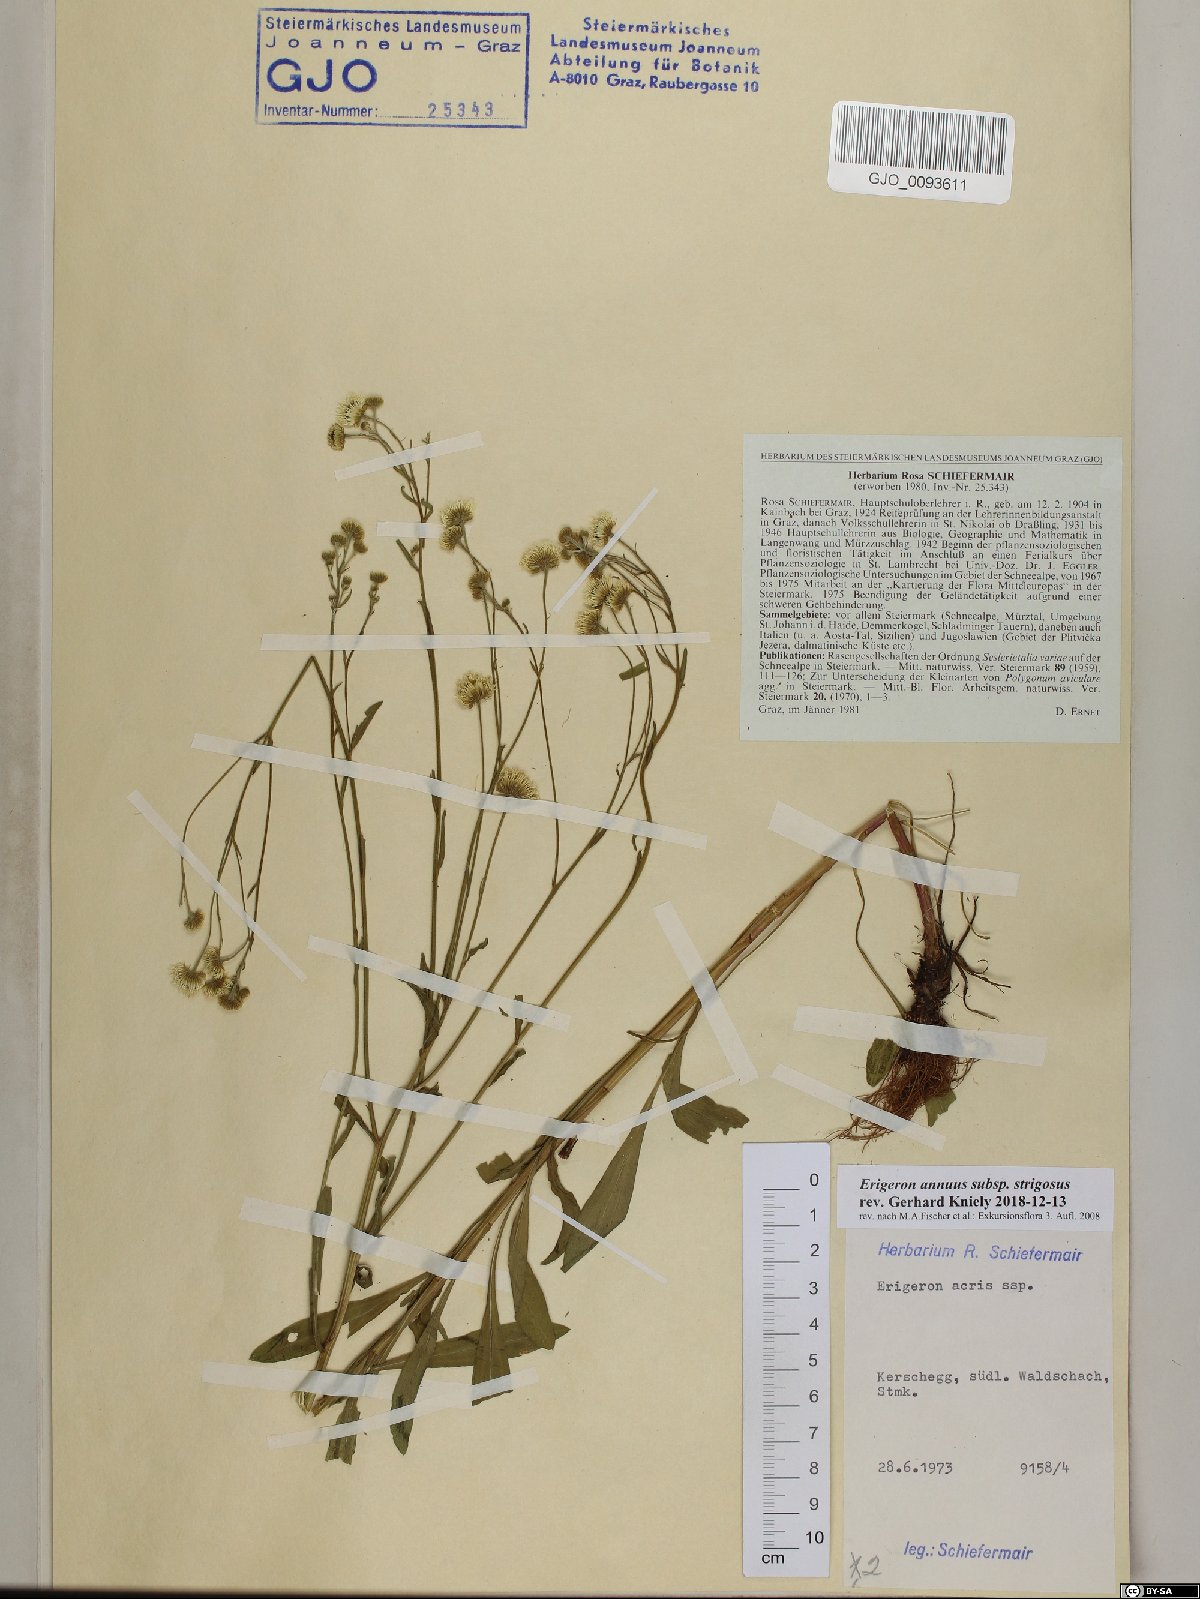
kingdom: Plantae
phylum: Tracheophyta
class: Magnoliopsida
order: Asterales
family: Asteraceae
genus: Erigeron
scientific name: Erigeron strigosus
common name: Common eastern fleabane
